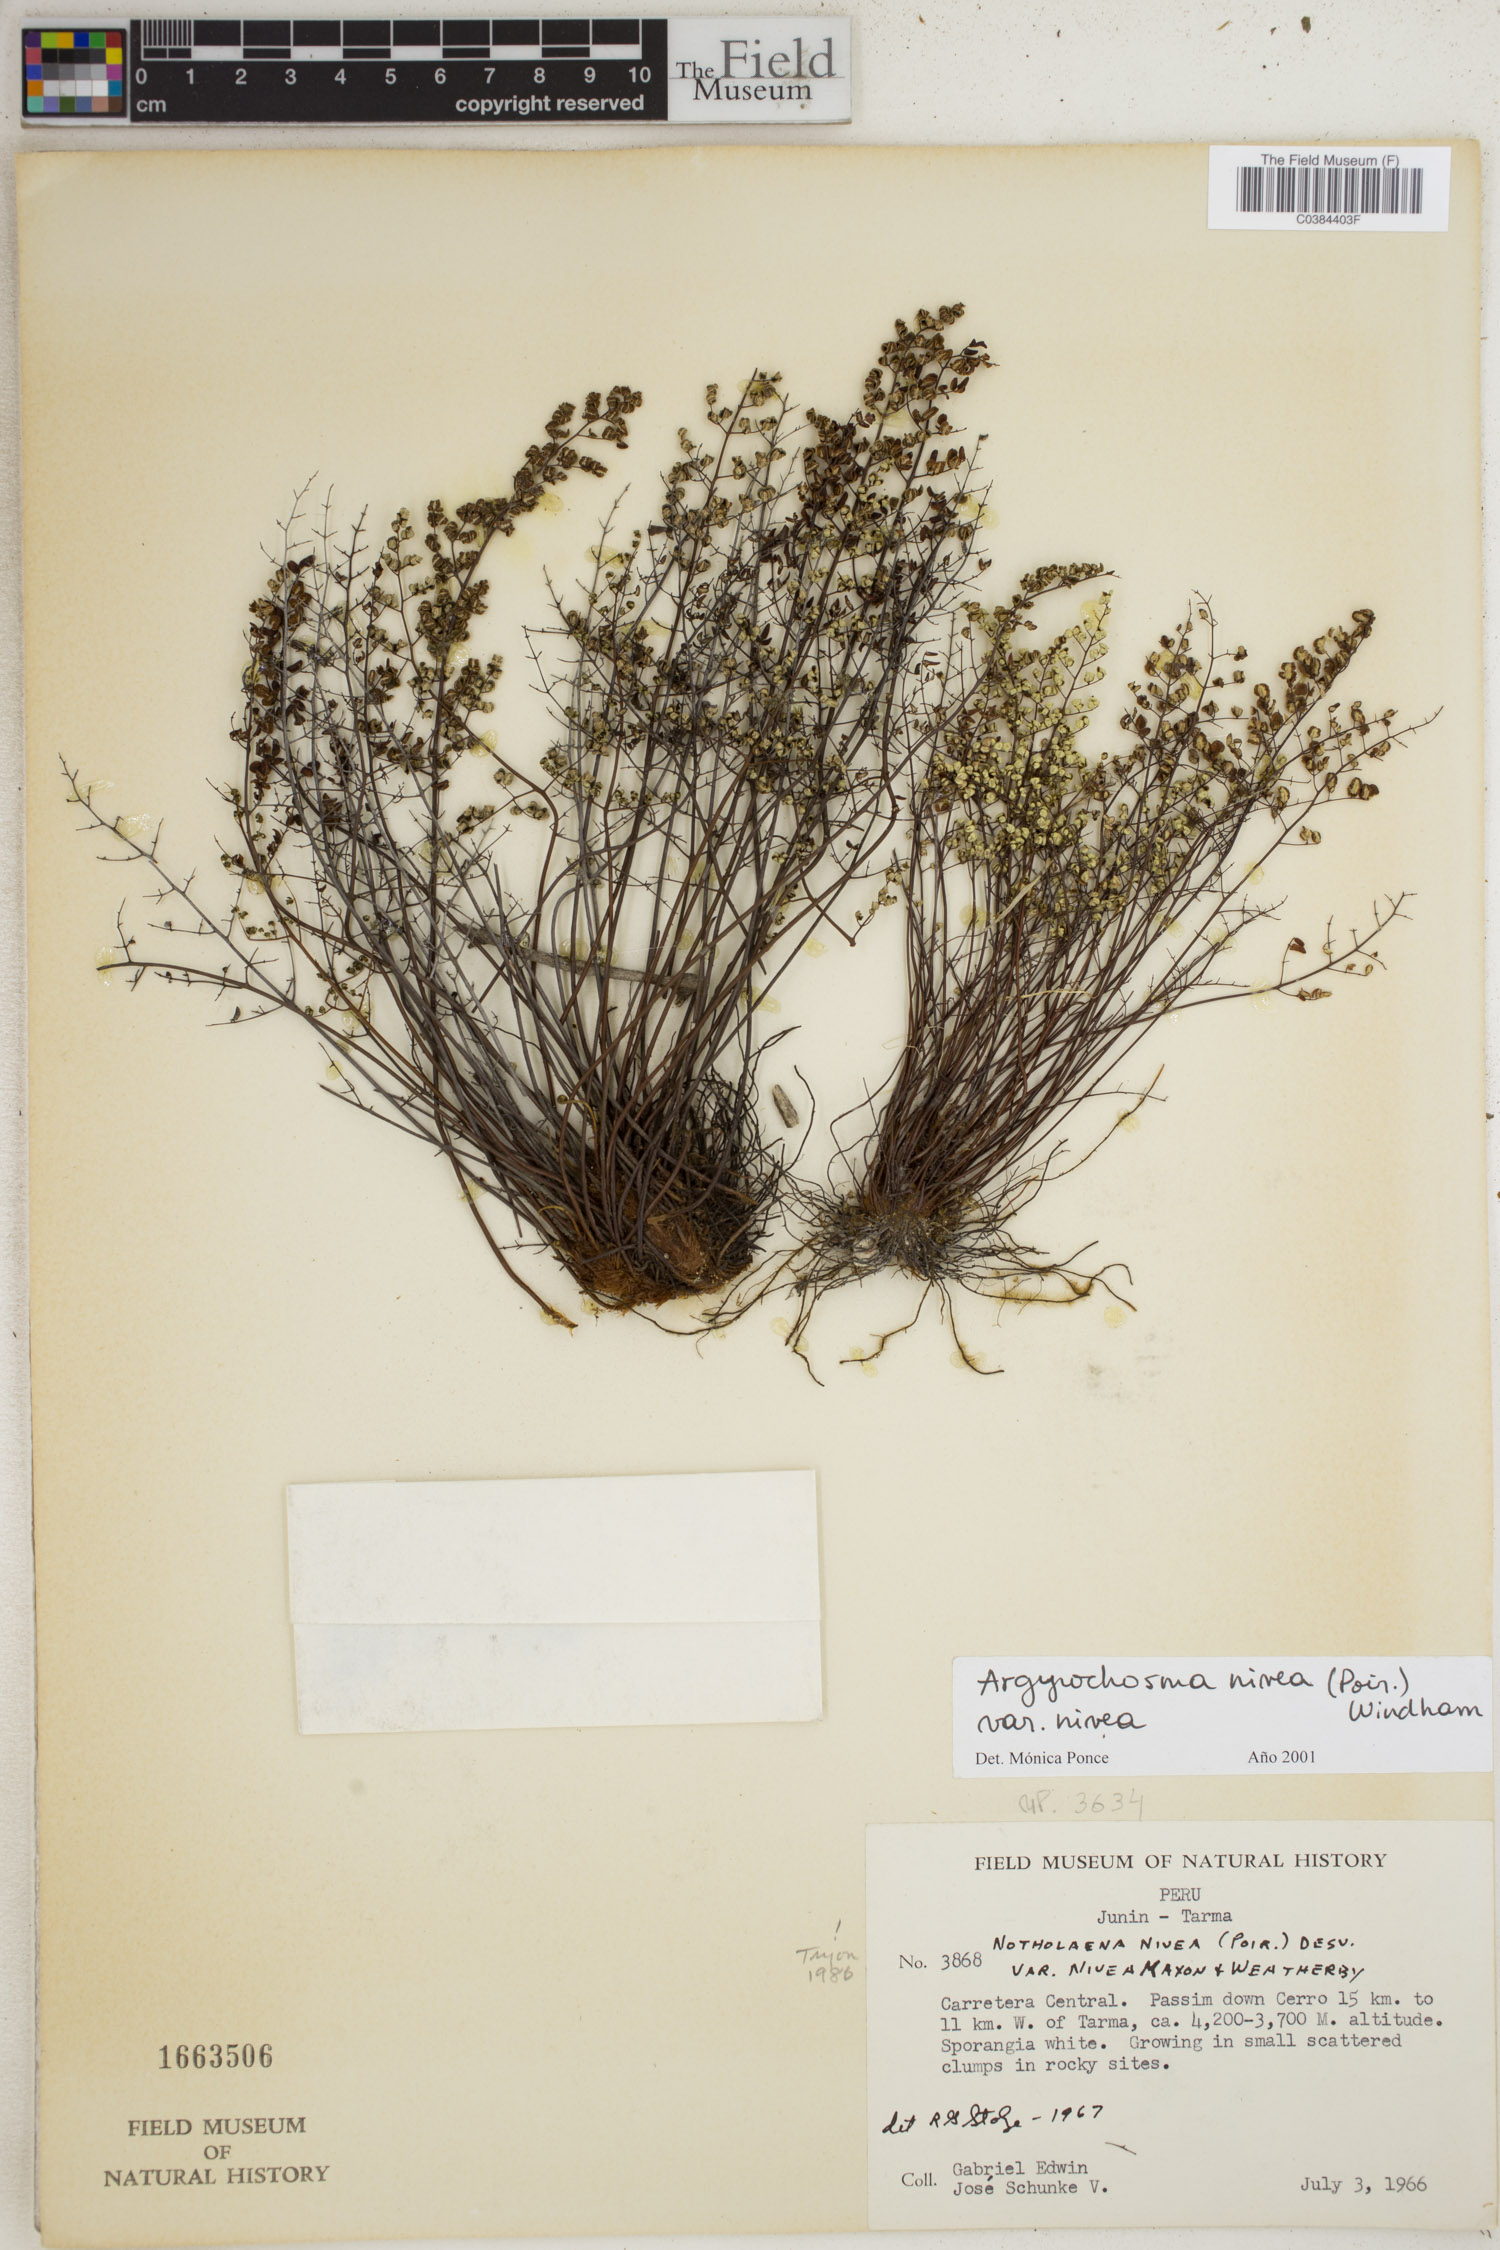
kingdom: Plantae
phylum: Tracheophyta
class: Polypodiopsida
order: Polypodiales
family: Pteridaceae
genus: Argyrochosma
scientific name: Argyrochosma nivea
